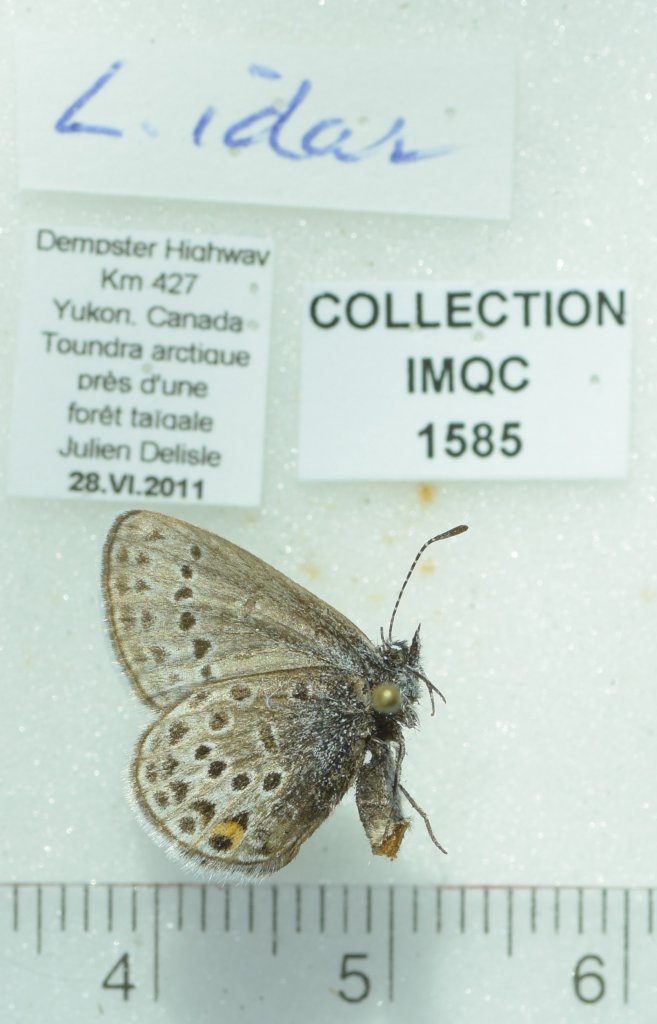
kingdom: Animalia
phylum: Arthropoda
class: Insecta
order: Lepidoptera
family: Lycaenidae
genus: Lycaeides
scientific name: Lycaeides idas
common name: Northern Blue
